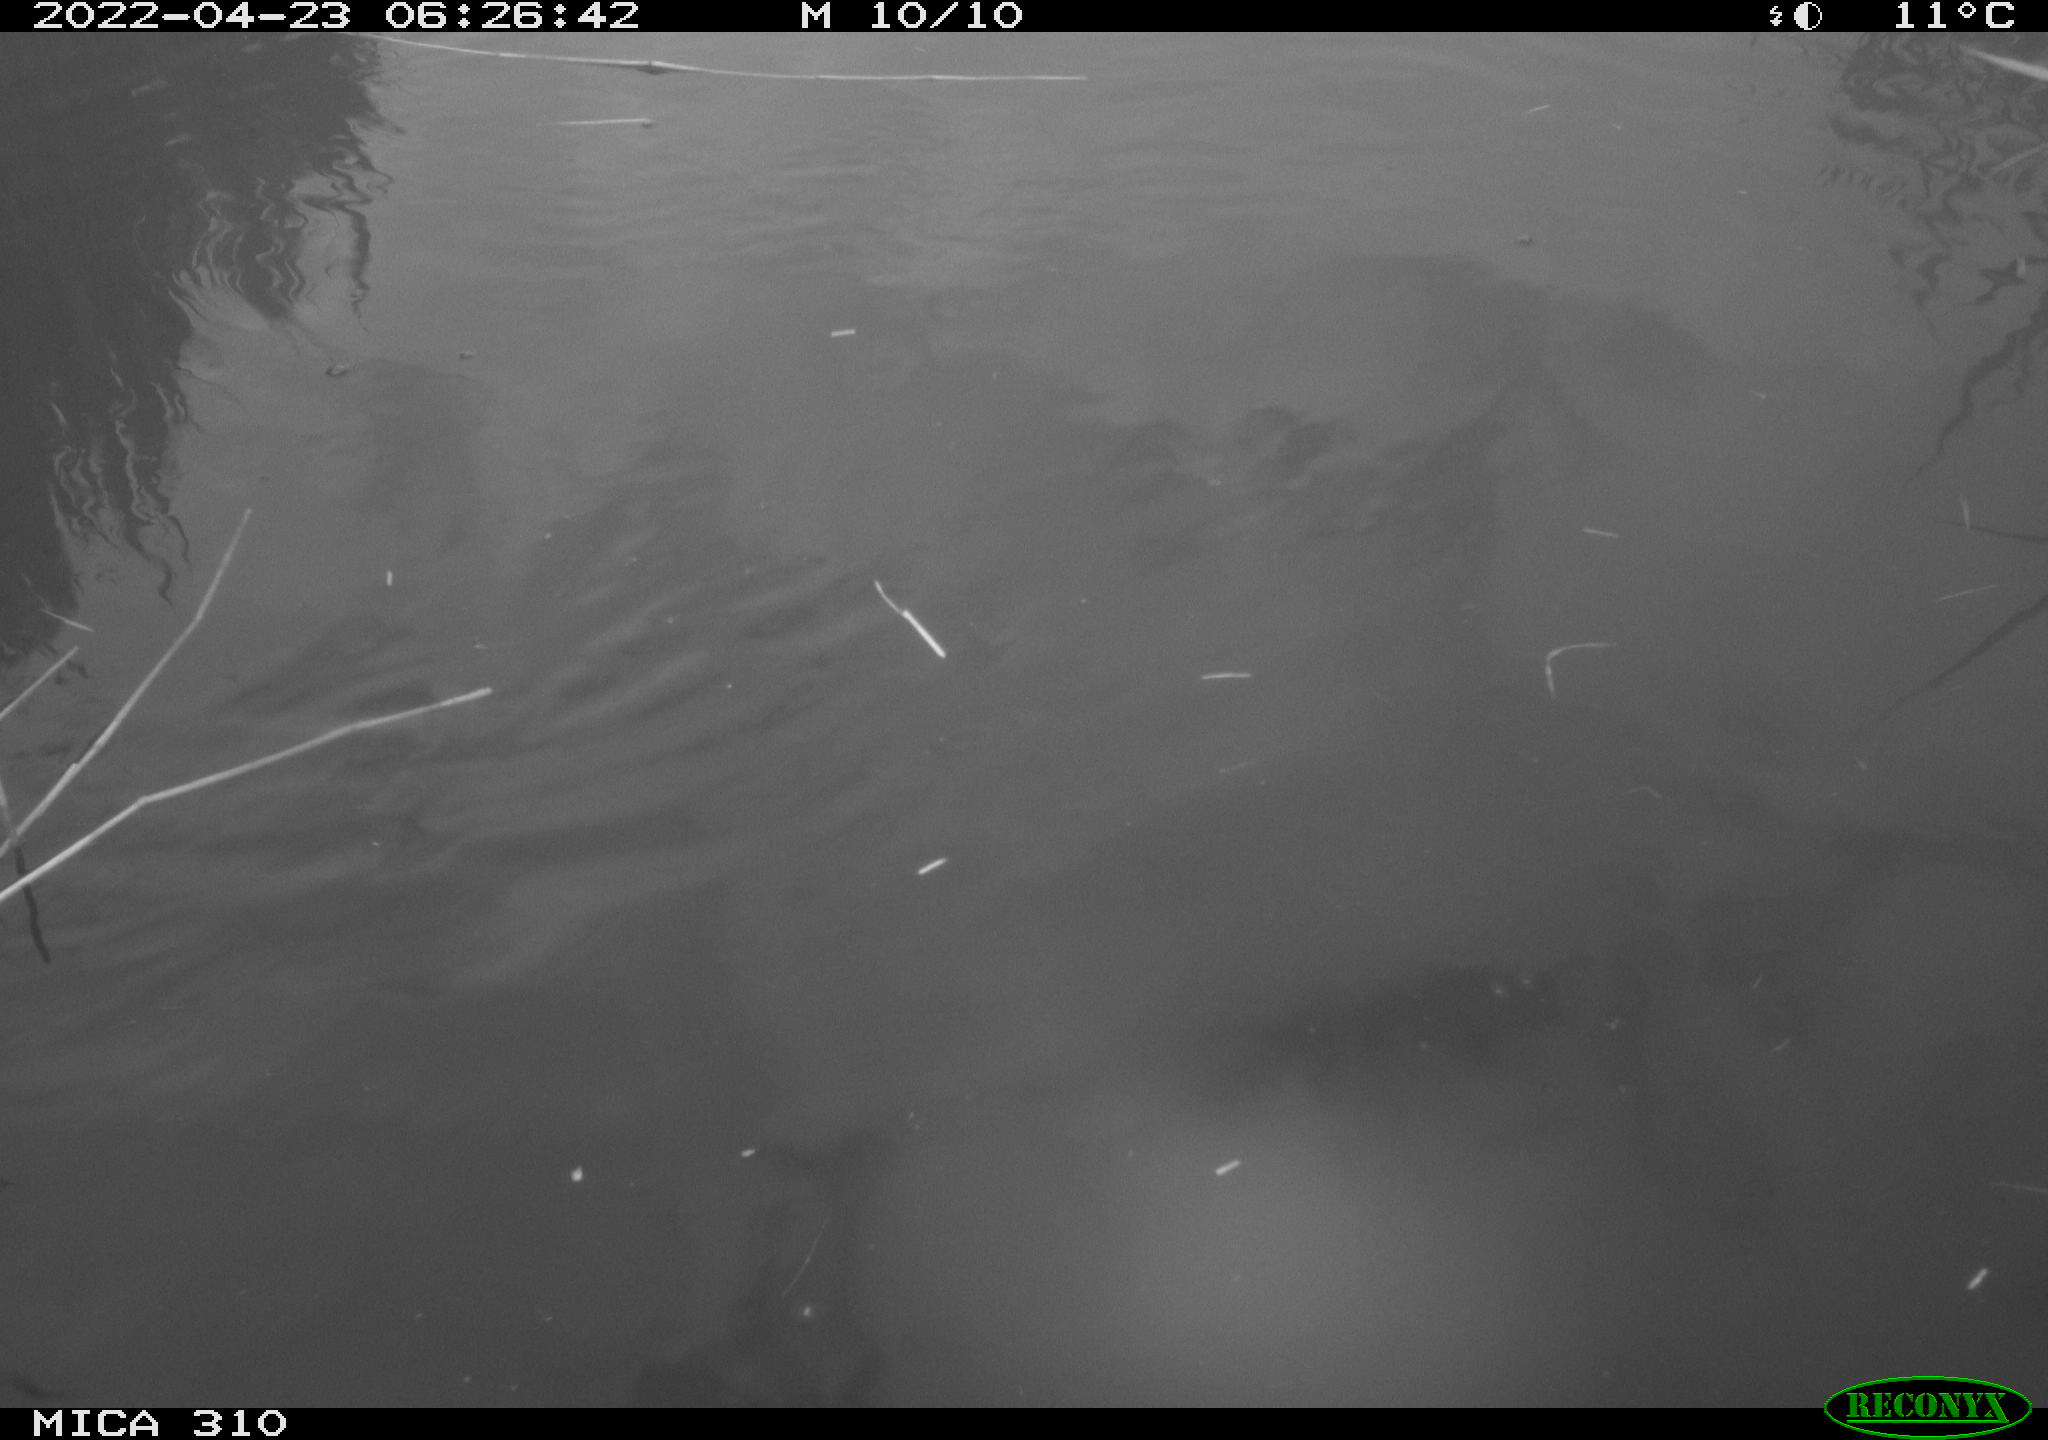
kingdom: Animalia
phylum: Chordata
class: Aves
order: Pelecaniformes
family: Ardeidae
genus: Ardea
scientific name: Ardea
